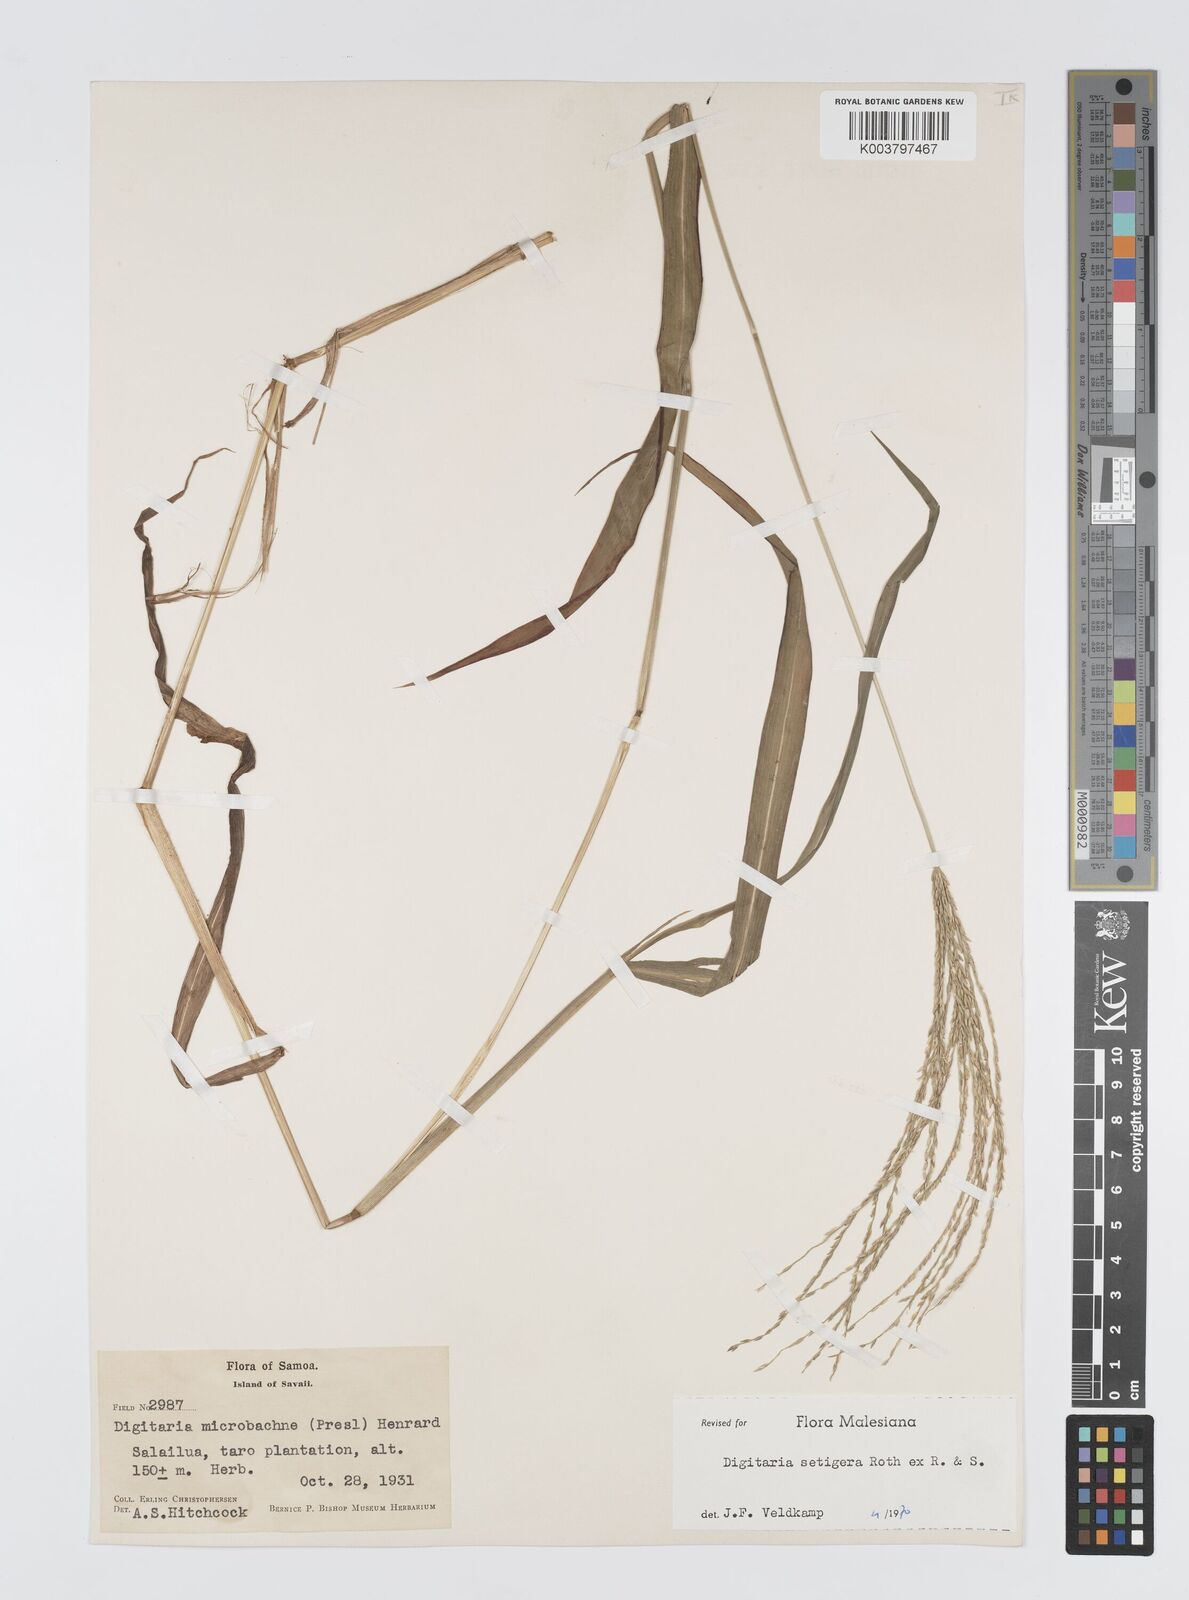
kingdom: Plantae
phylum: Tracheophyta
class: Liliopsida
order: Poales
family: Poaceae
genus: Digitaria
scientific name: Digitaria setigera
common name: East indian crabgrass
